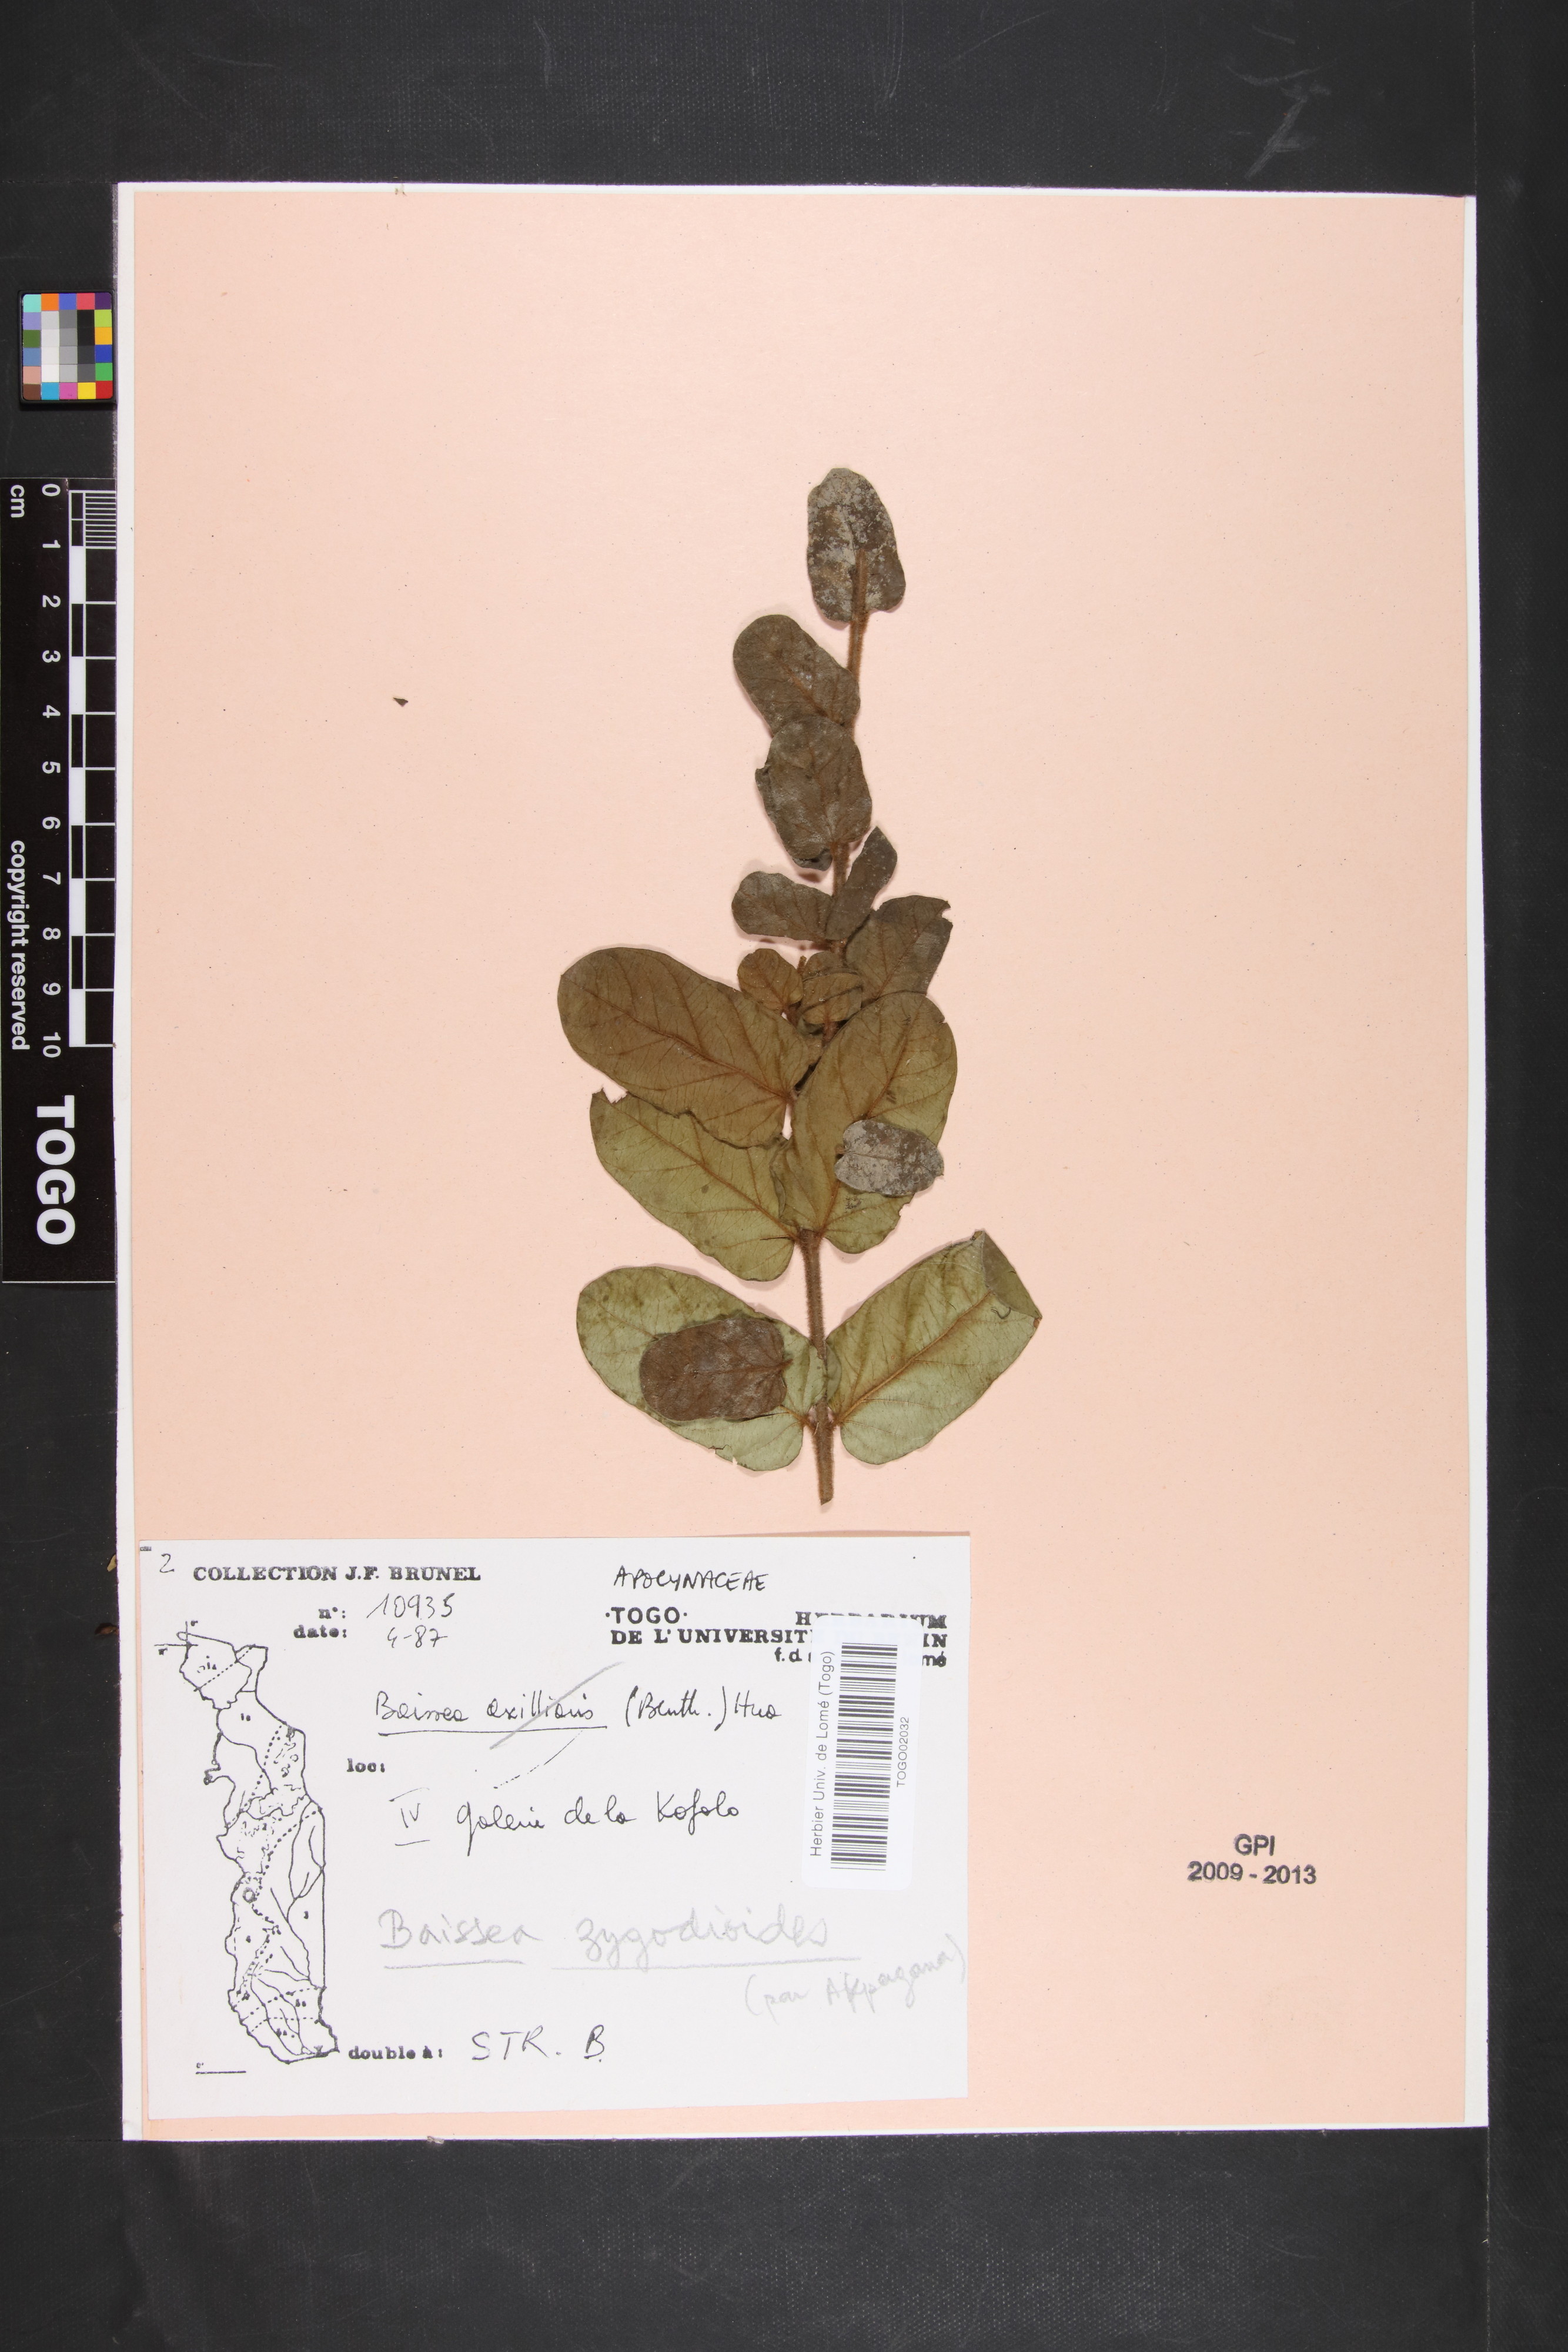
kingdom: Plantae
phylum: Tracheophyta
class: Magnoliopsida
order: Gentianales
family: Apocynaceae
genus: Baissea
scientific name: Baissea zygodioides
